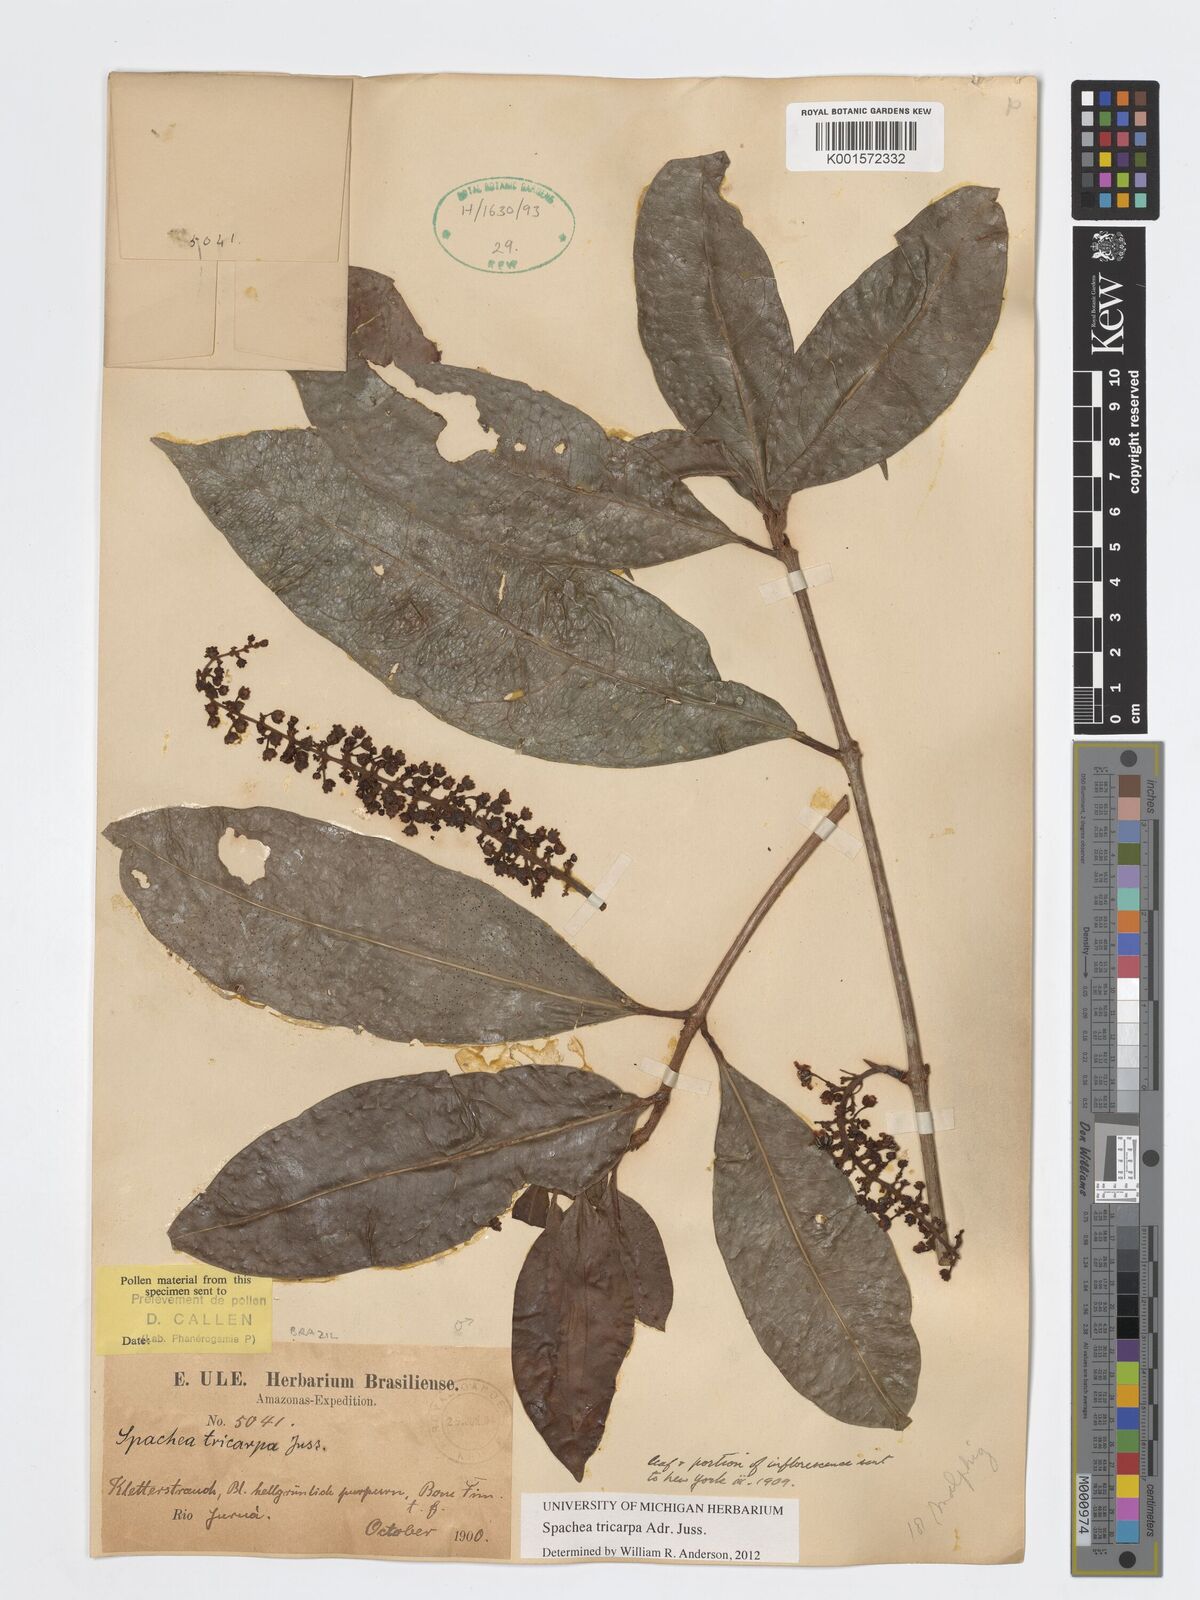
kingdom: Plantae
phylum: Tracheophyta
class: Magnoliopsida
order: Malpighiales
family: Malpighiaceae
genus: Spachea
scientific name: Spachea tricarpa
